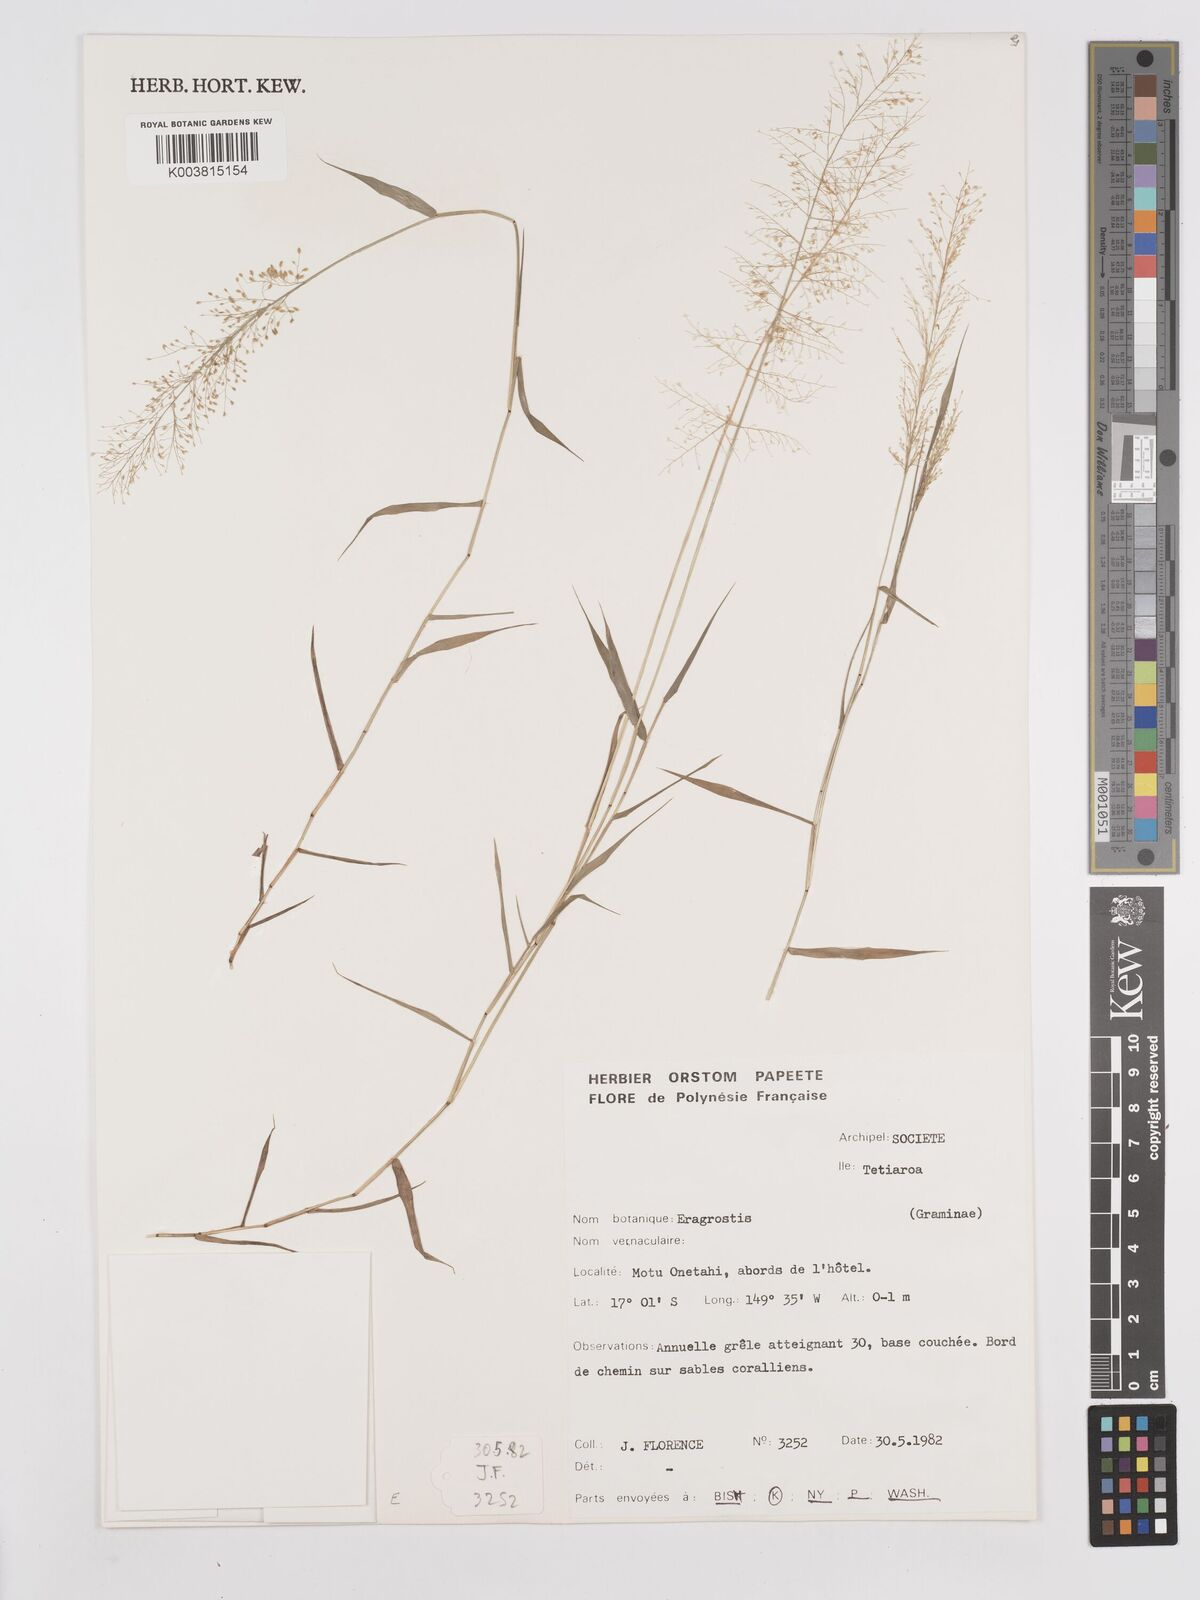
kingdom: Plantae
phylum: Tracheophyta
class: Liliopsida
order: Poales
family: Poaceae
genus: Eragrostis
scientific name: Eragrostis tenella
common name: Japanese lovegrass
